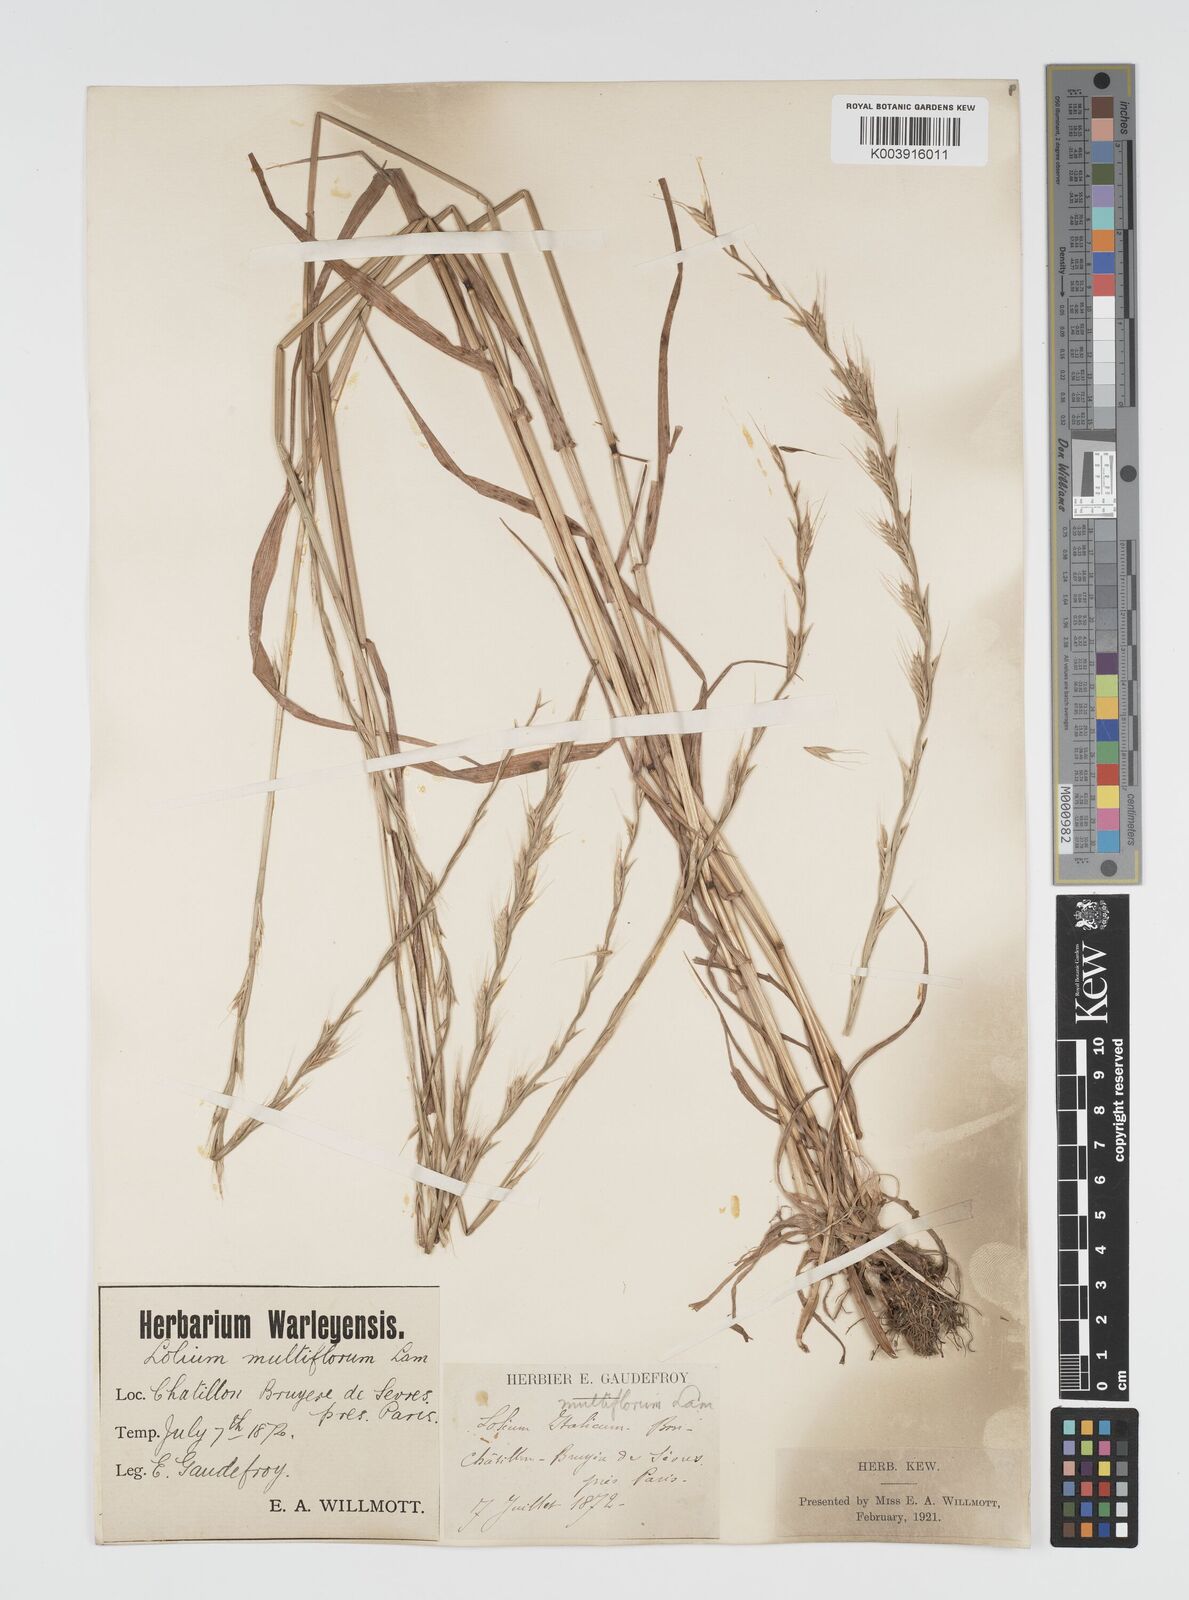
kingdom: Plantae
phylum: Tracheophyta
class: Liliopsida
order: Poales
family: Poaceae
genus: Lolium
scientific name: Lolium multiflorum
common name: Annual ryegrass
